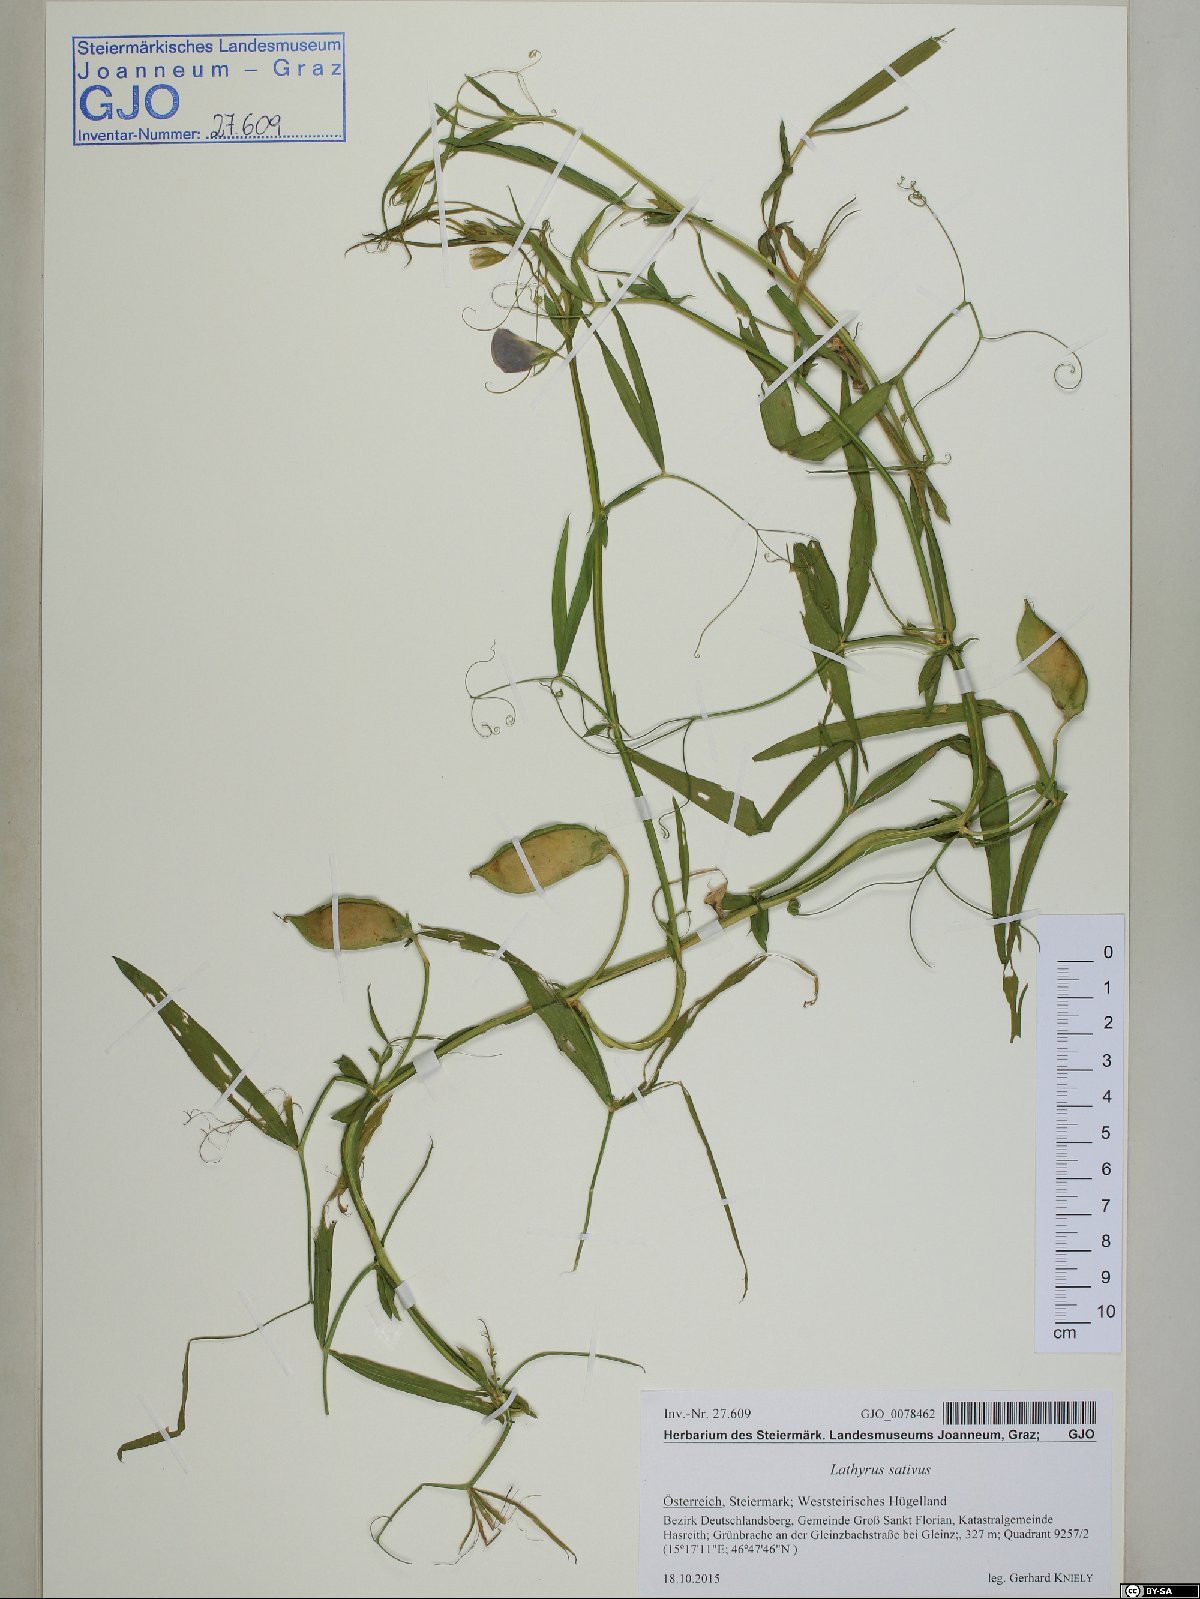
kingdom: Plantae
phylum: Tracheophyta
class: Magnoliopsida
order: Fabales
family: Fabaceae
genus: Lathyrus
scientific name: Lathyrus sativus
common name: Indian pea
